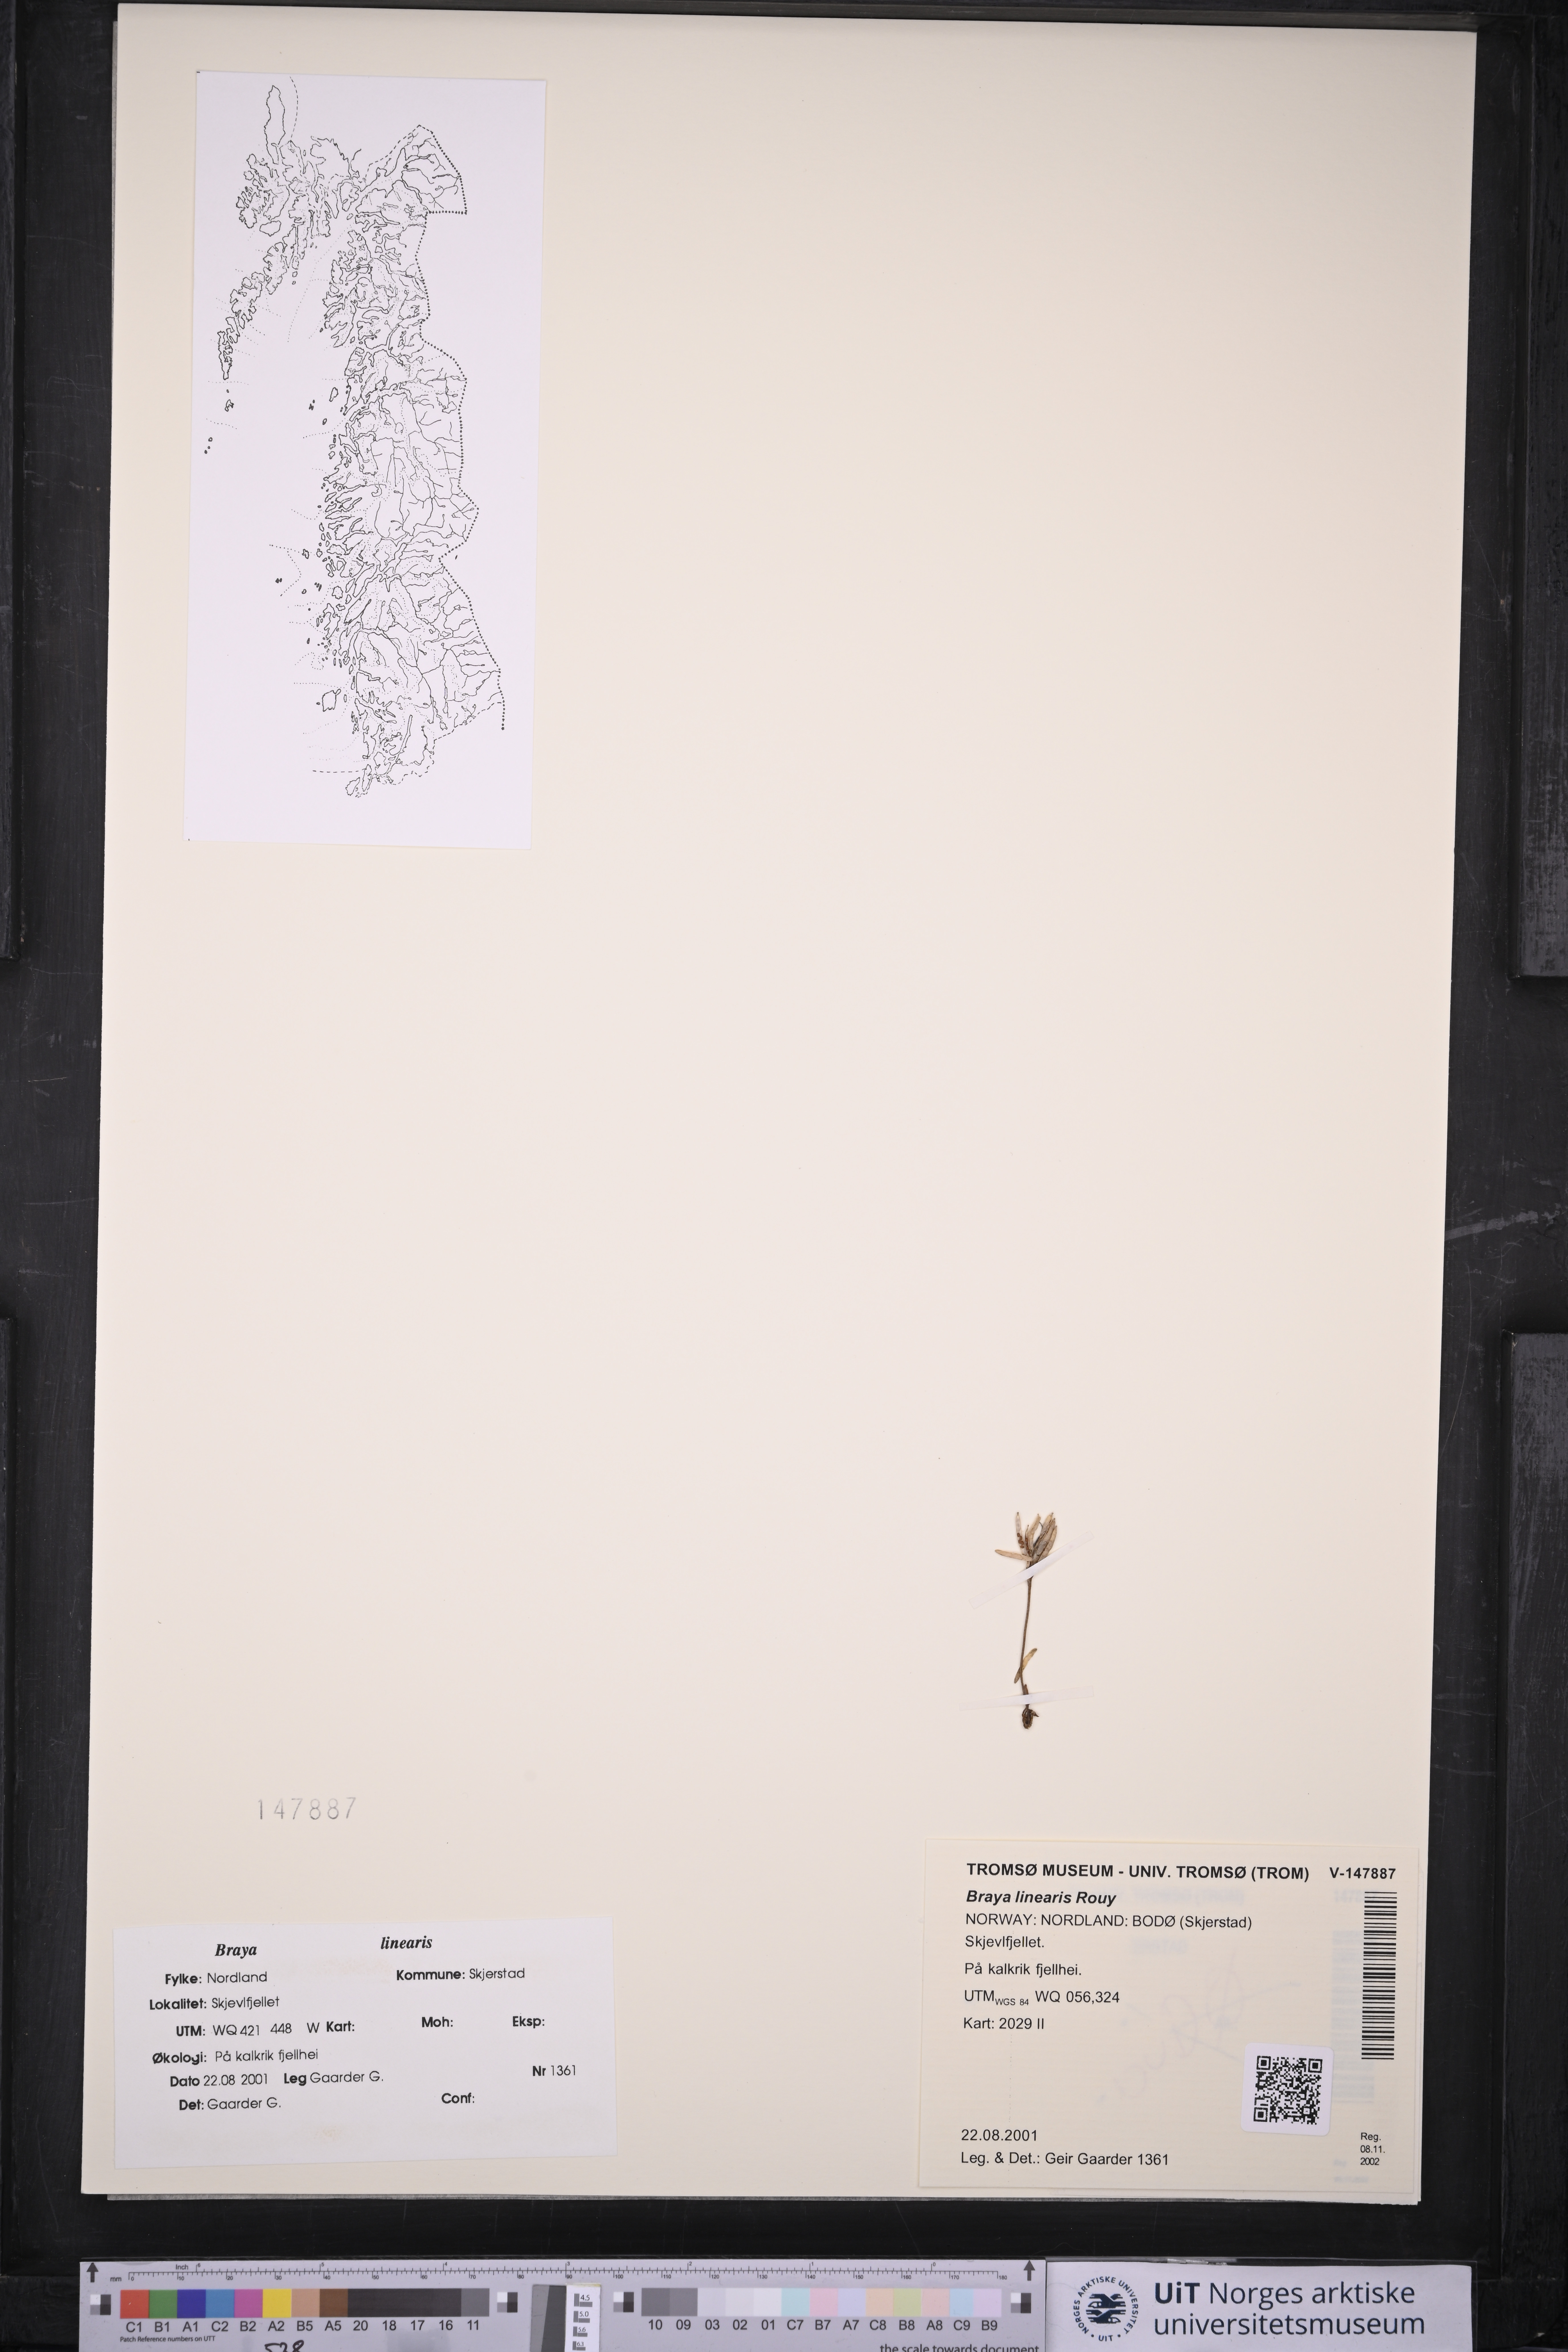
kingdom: Plantae
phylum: Tracheophyta
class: Magnoliopsida
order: Brassicales
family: Brassicaceae
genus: Braya
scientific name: Braya linearis
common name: Narrow-fruit braya
